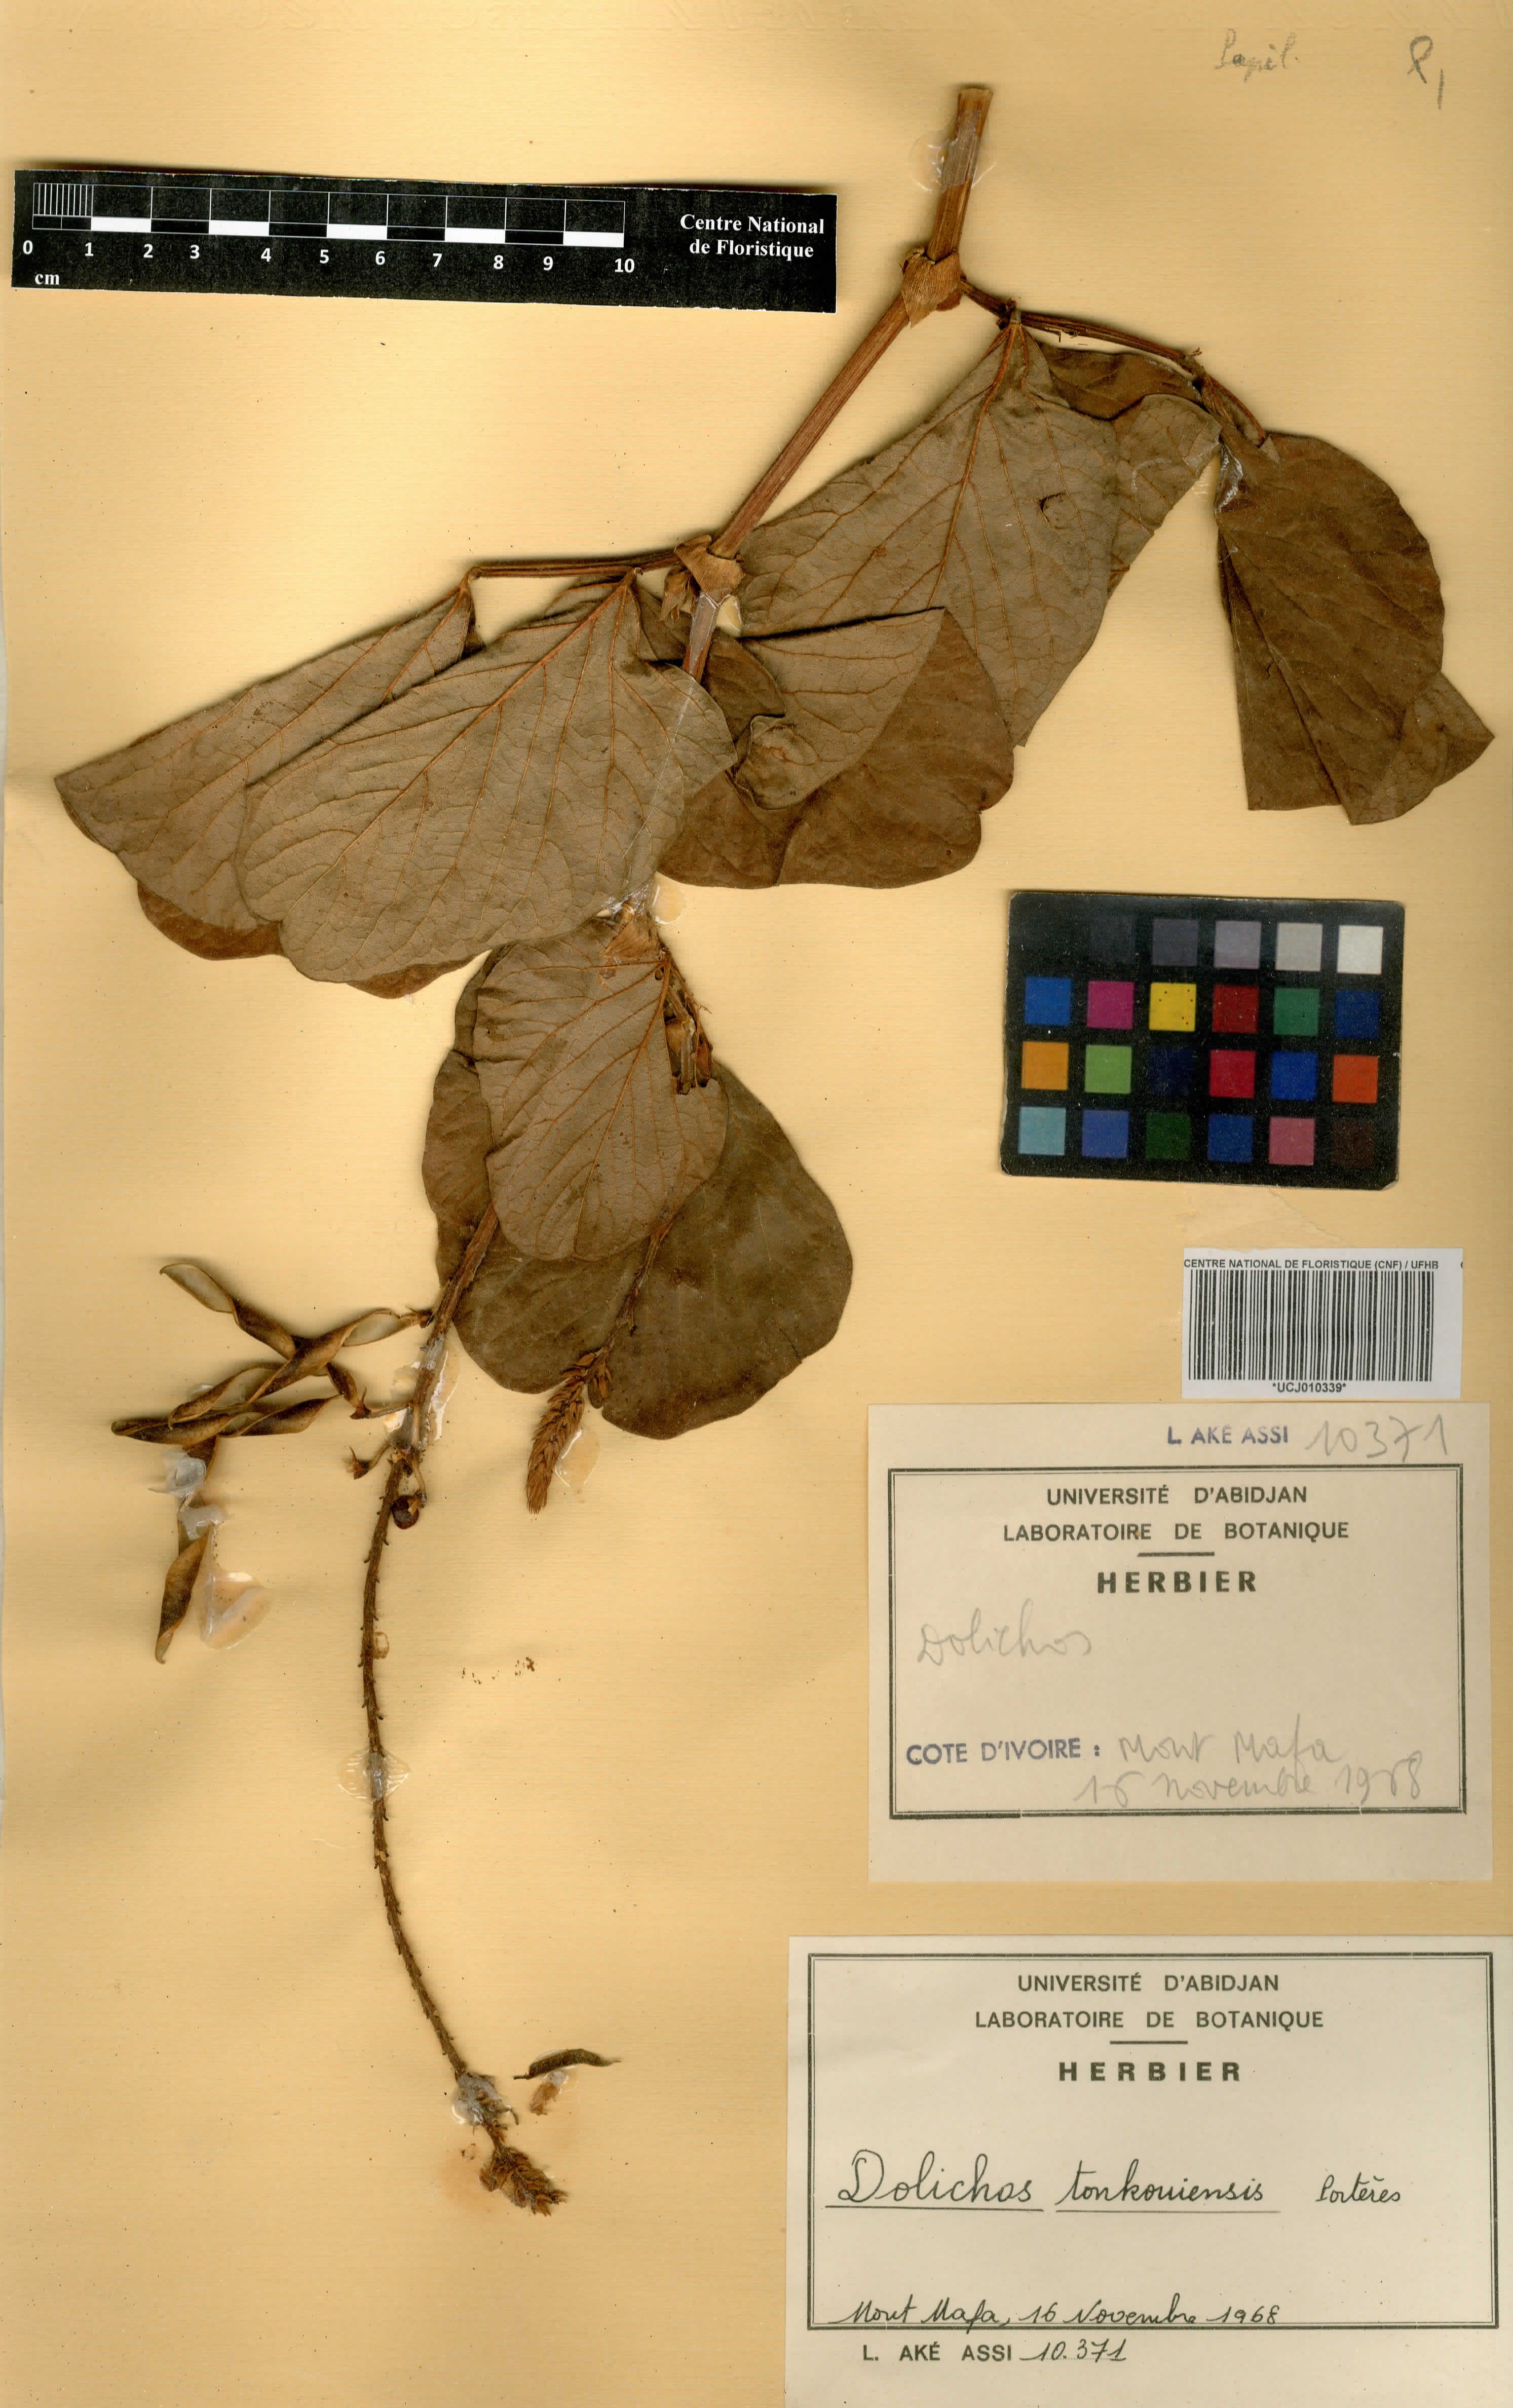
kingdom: Plantae
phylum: Tracheophyta
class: Magnoliopsida
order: Fabales
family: Fabaceae
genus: Dolichos
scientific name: Dolichos tonkouiensis
